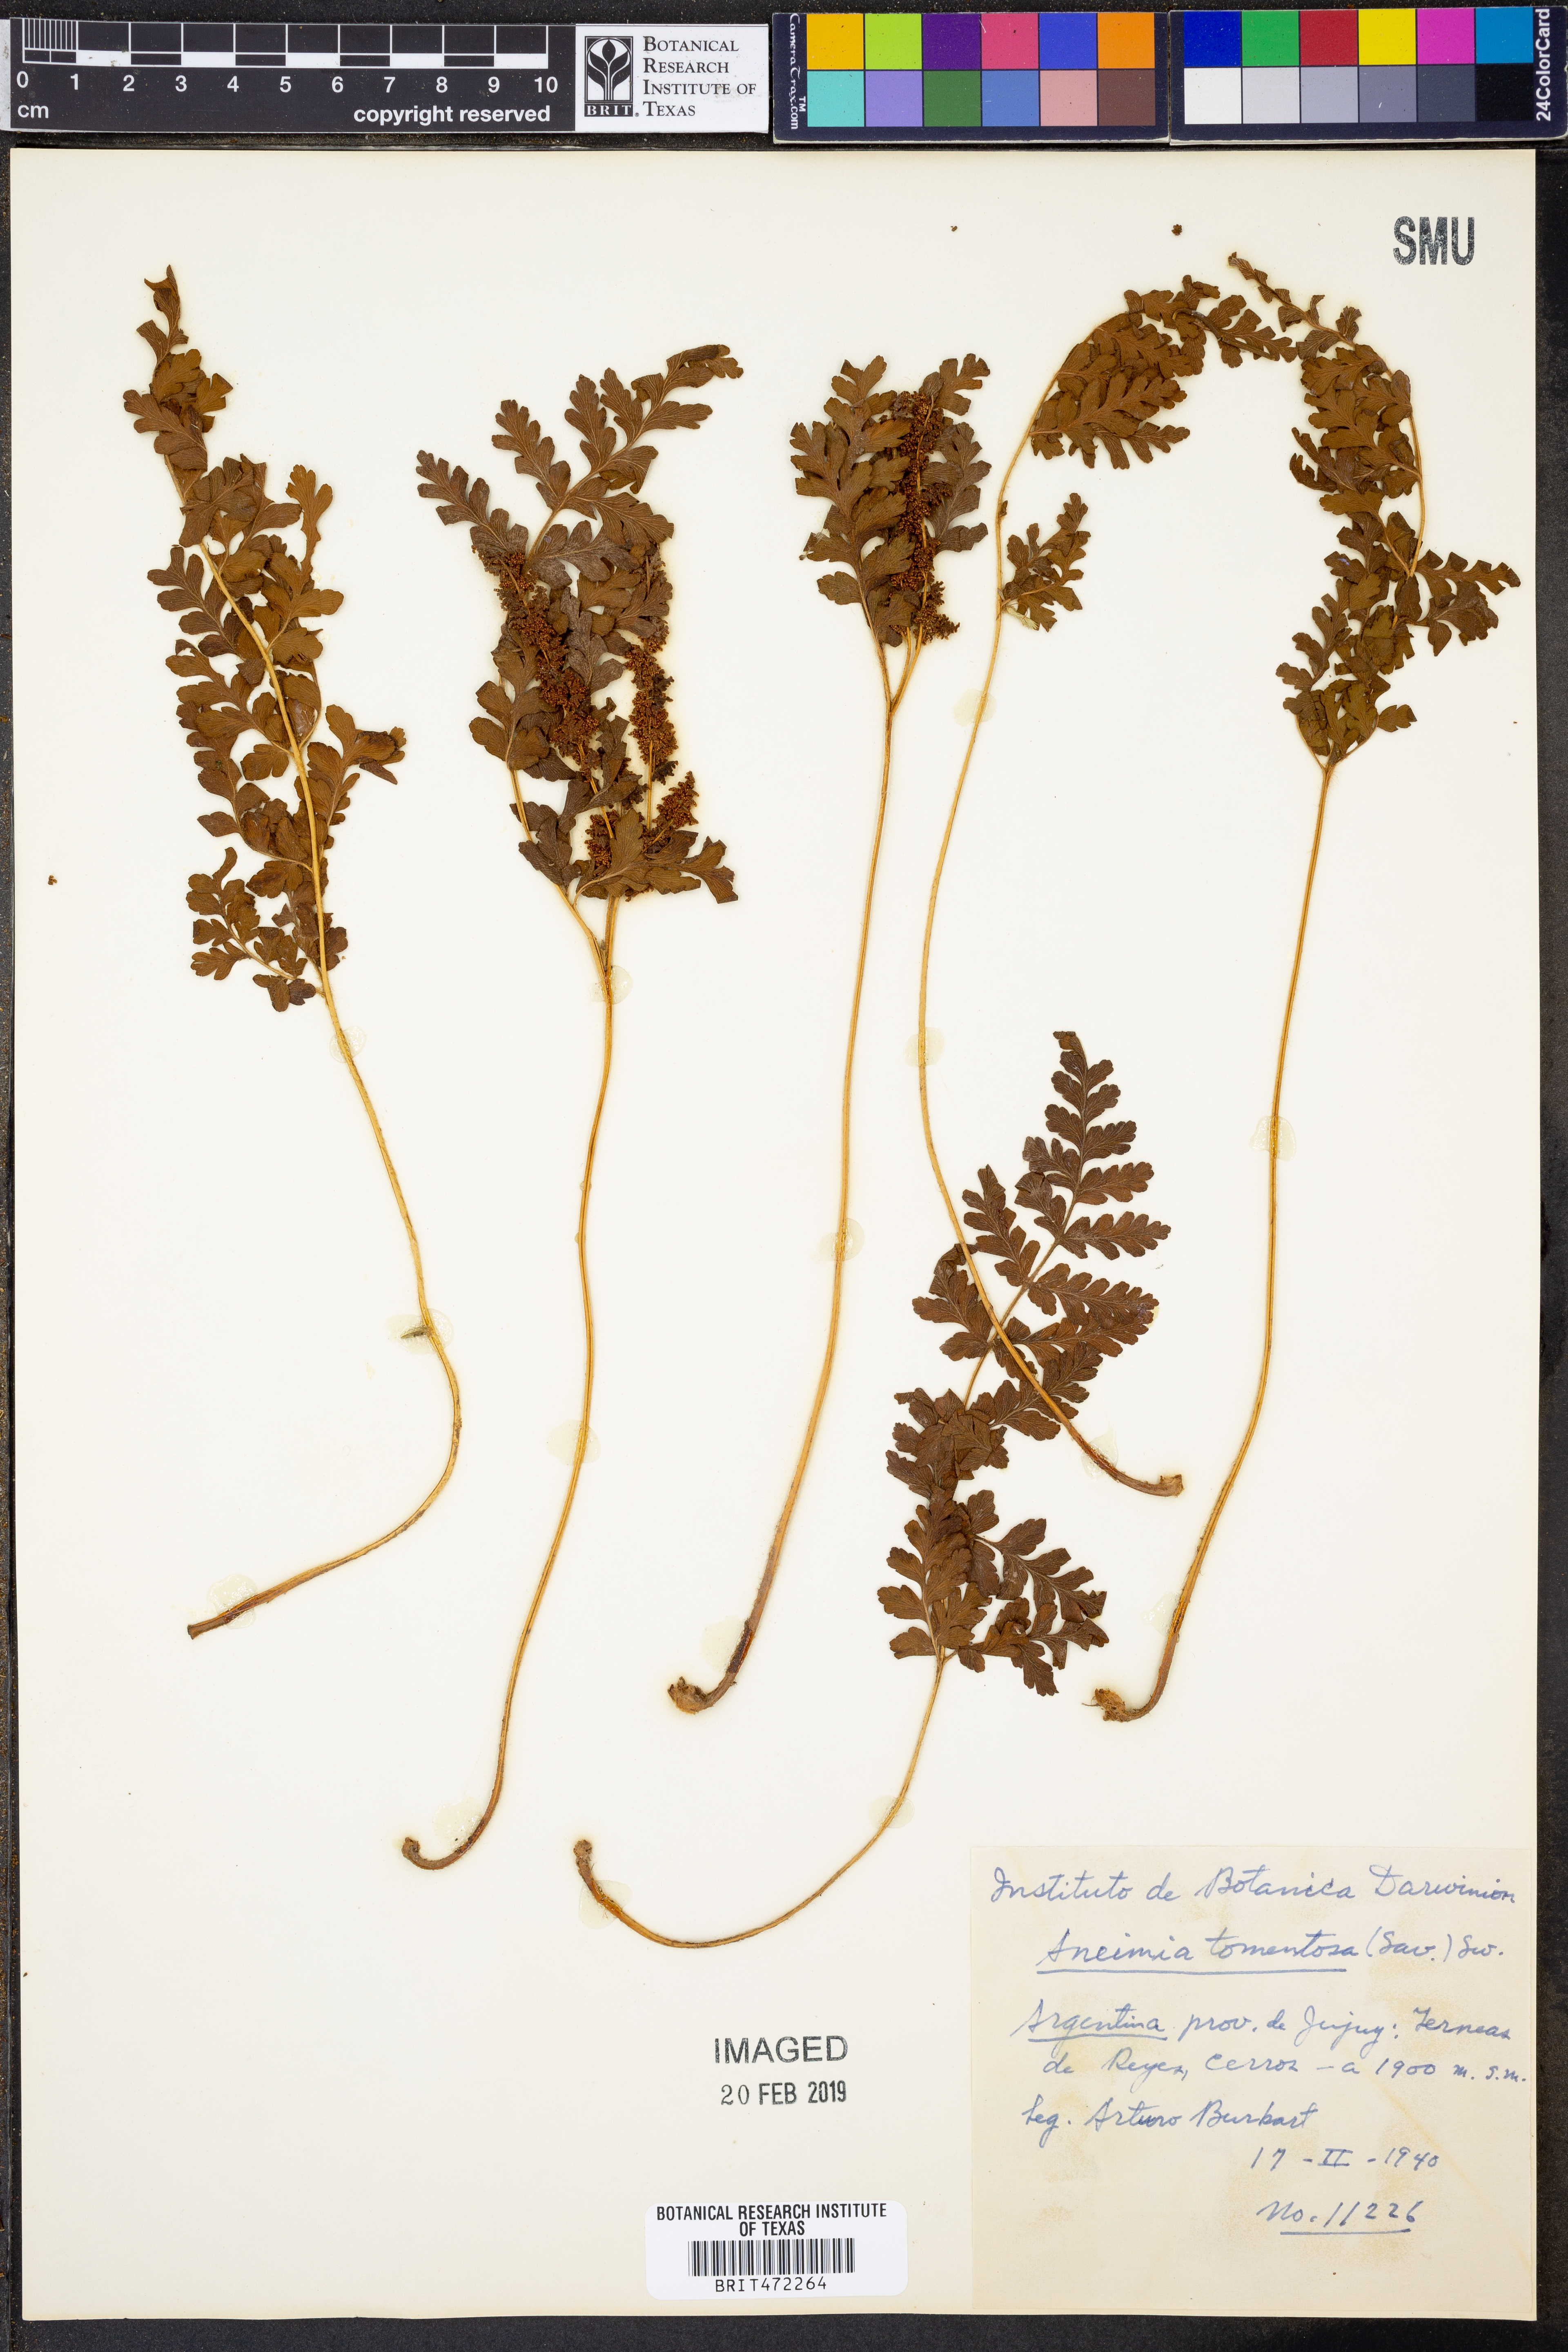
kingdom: Plantae
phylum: Tracheophyta
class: Polypodiopsida
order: Schizaeales
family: Anemiaceae
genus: Anemia
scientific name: Anemia tomentosa
